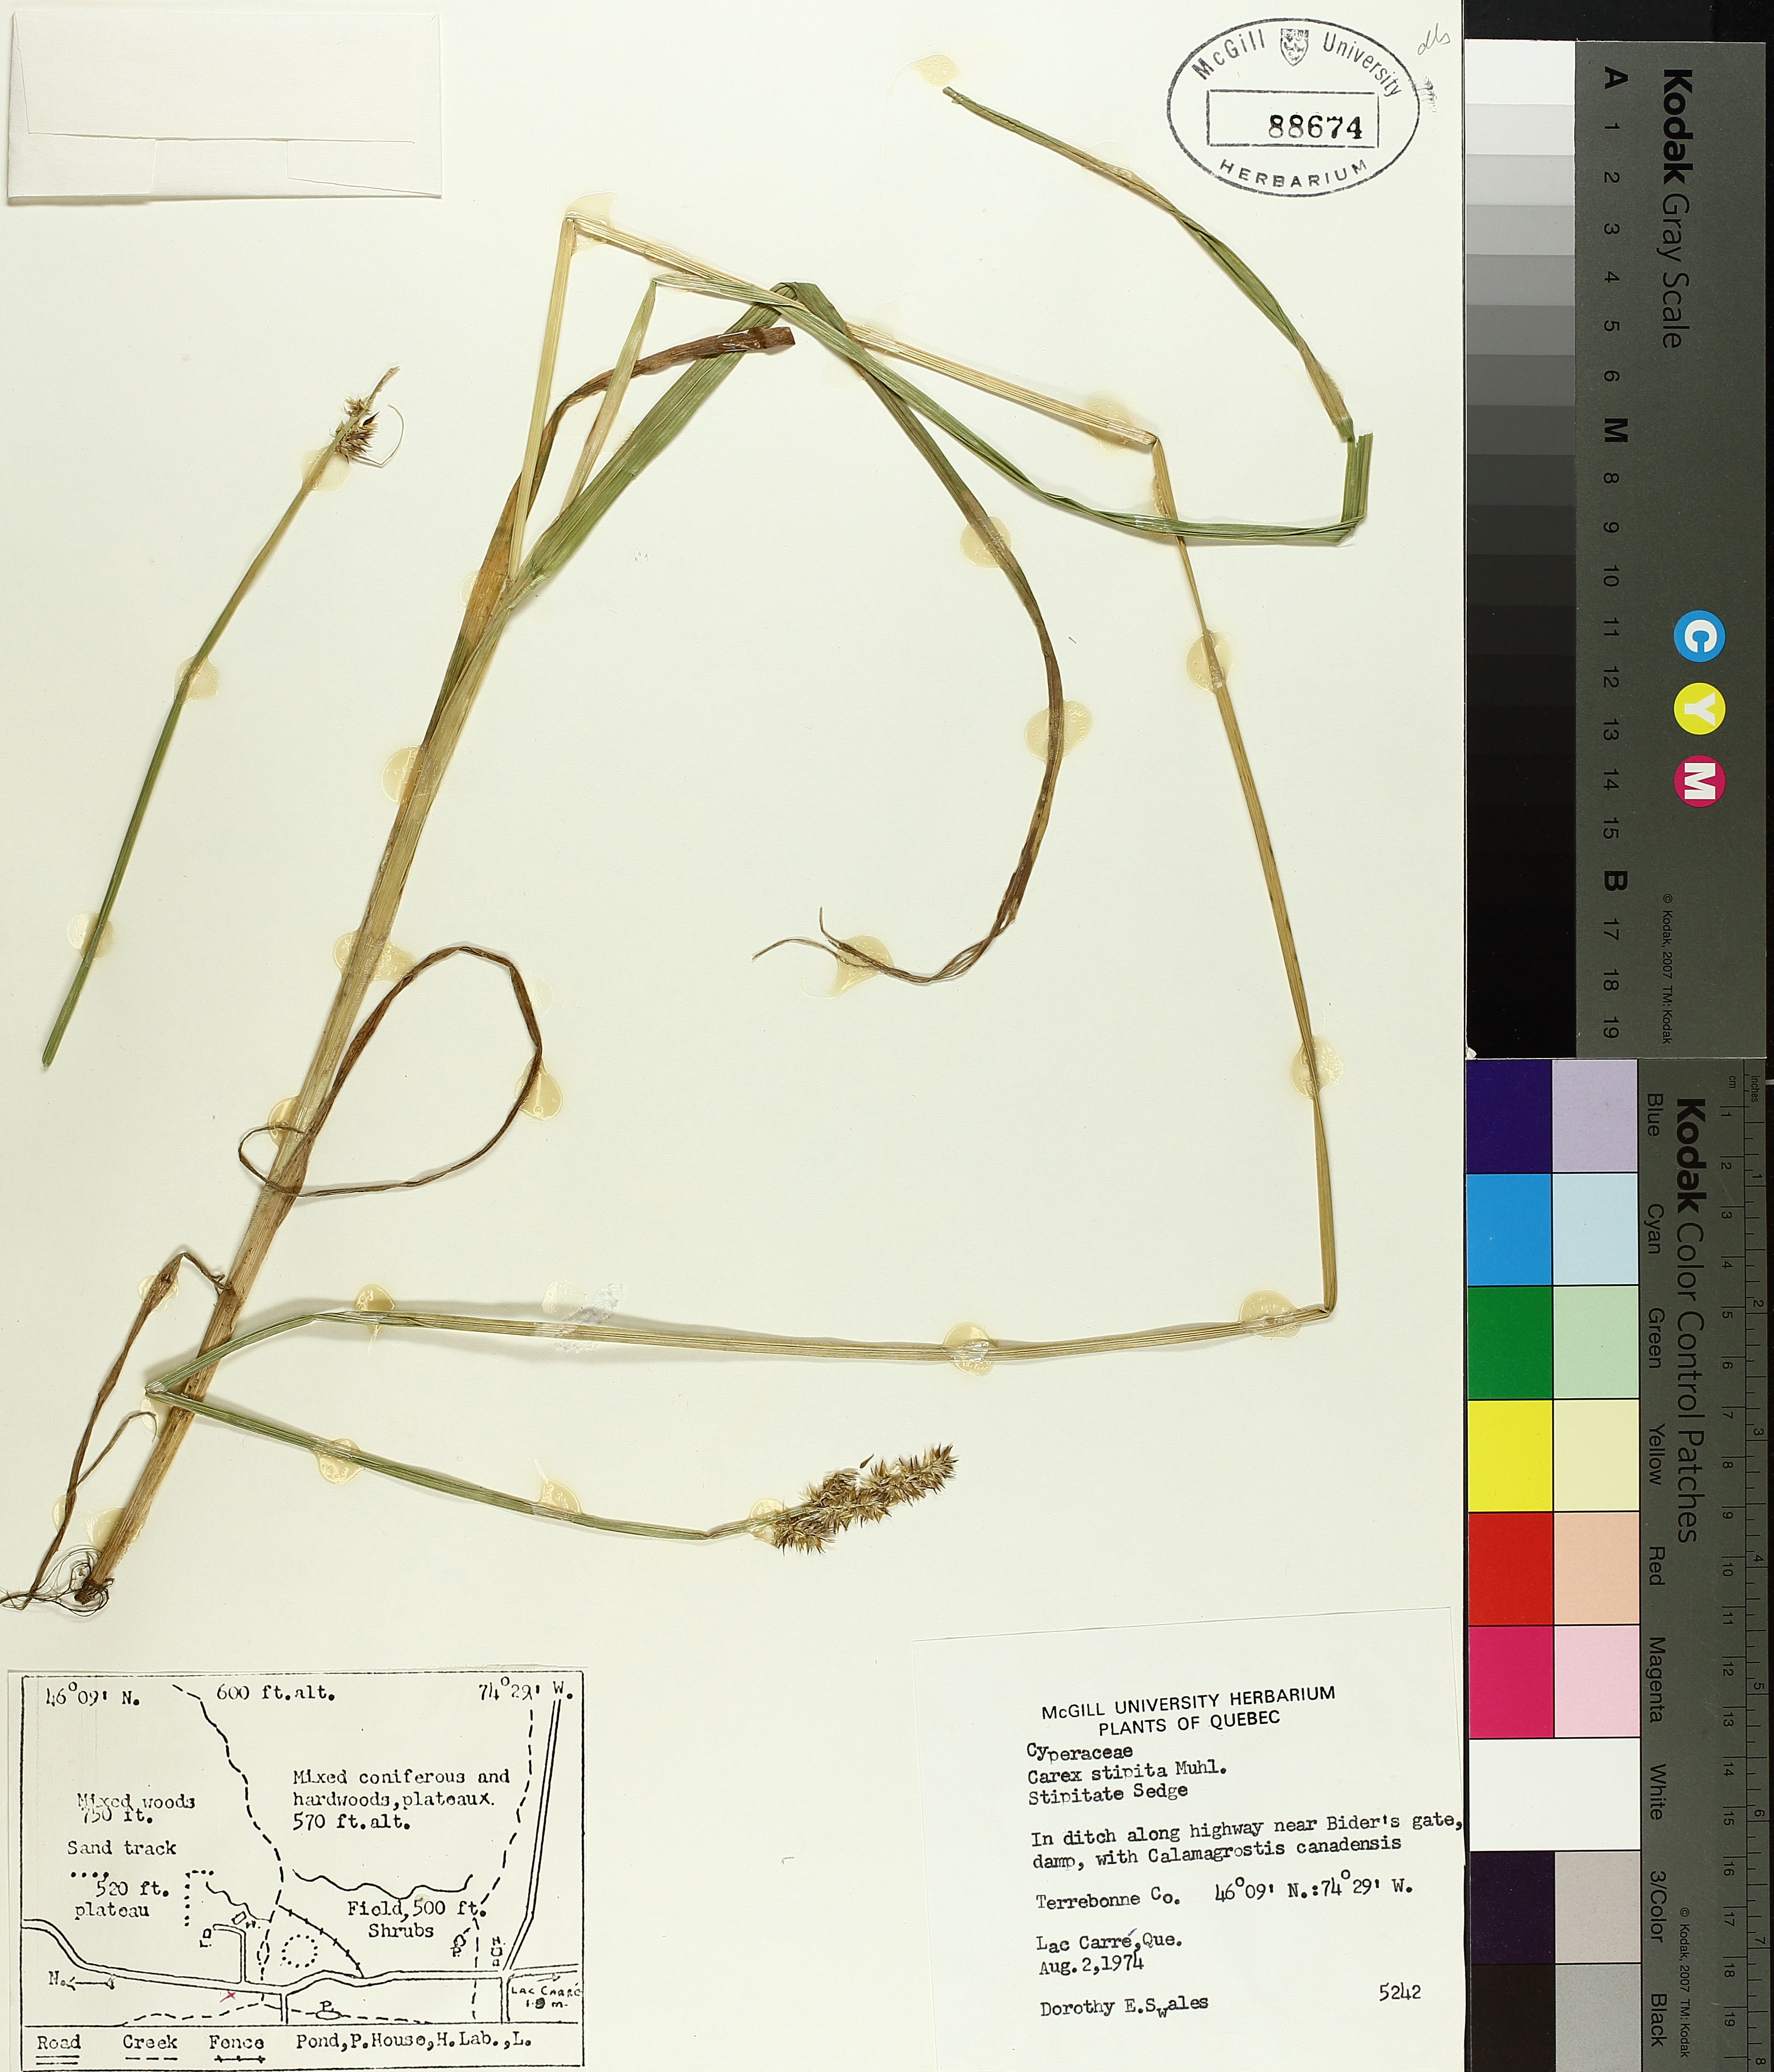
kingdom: Plantae
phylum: Tracheophyta
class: Liliopsida
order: Poales
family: Cyperaceae
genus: Carex
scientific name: Carex stipata
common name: Awl-fruited sedge
